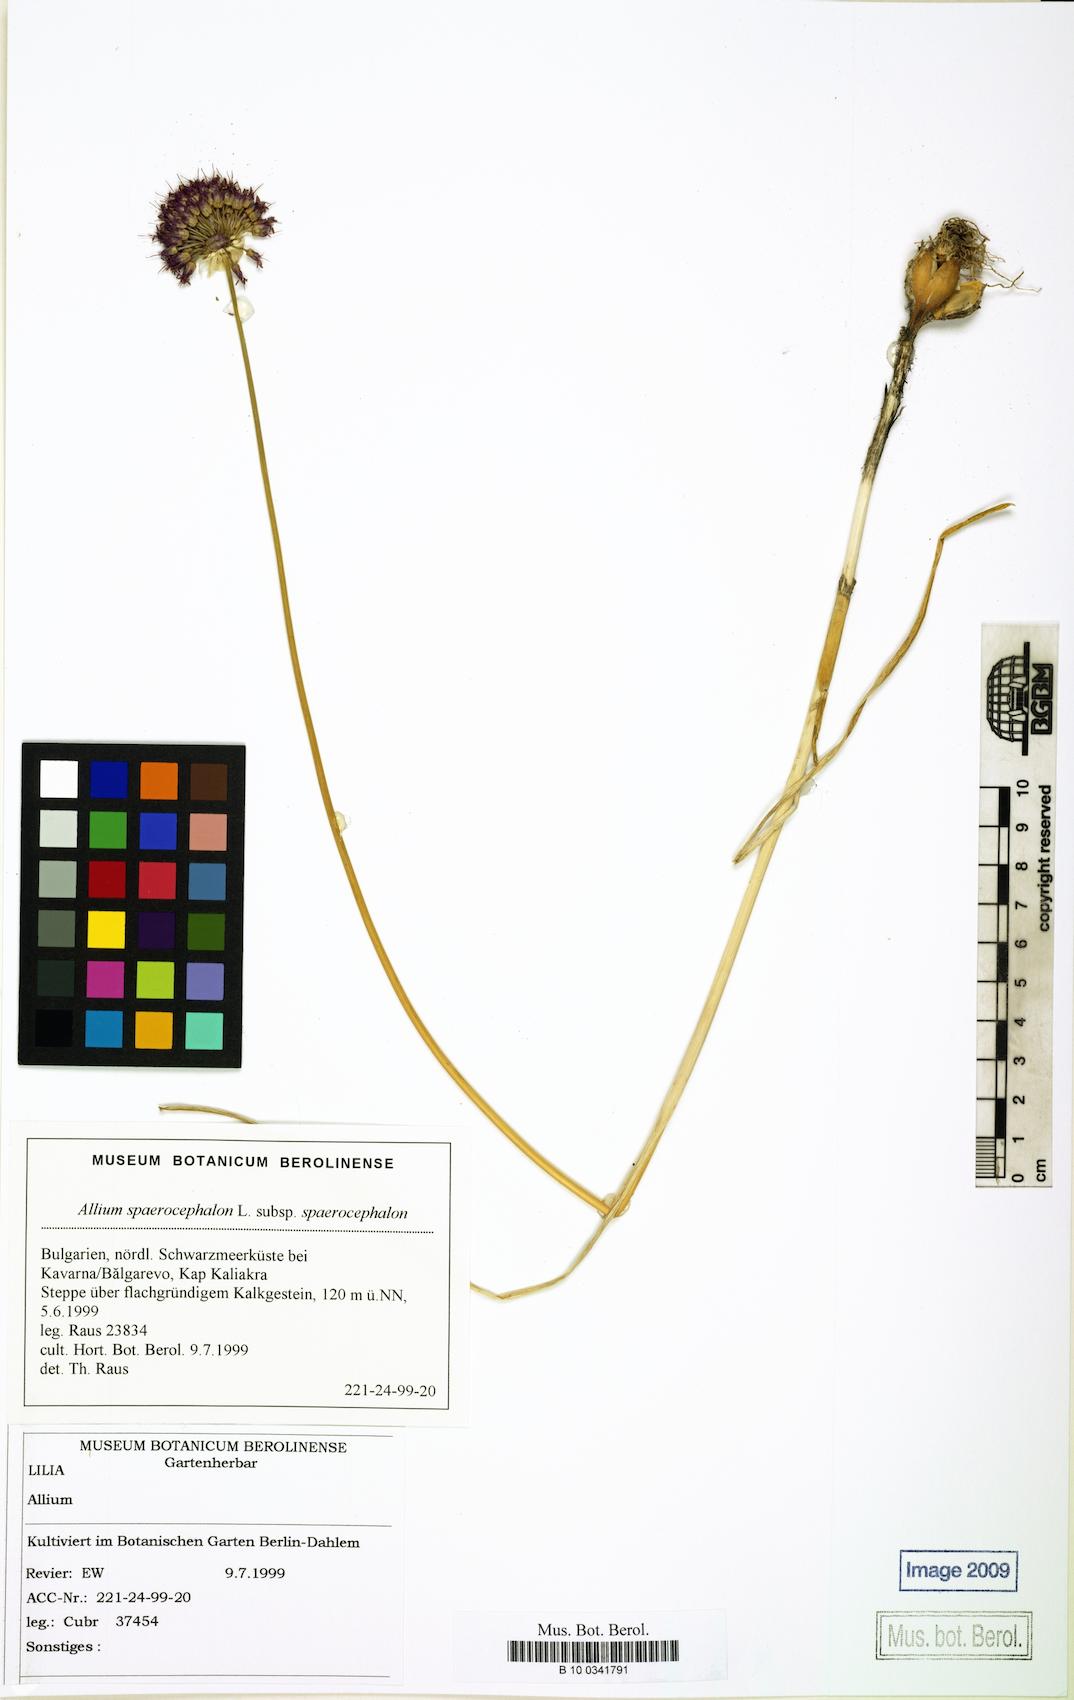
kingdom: Plantae
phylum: Tracheophyta
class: Liliopsida
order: Asparagales
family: Amaryllidaceae
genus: Allium
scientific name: Allium sphaerocephalon
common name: Round-headed leek
